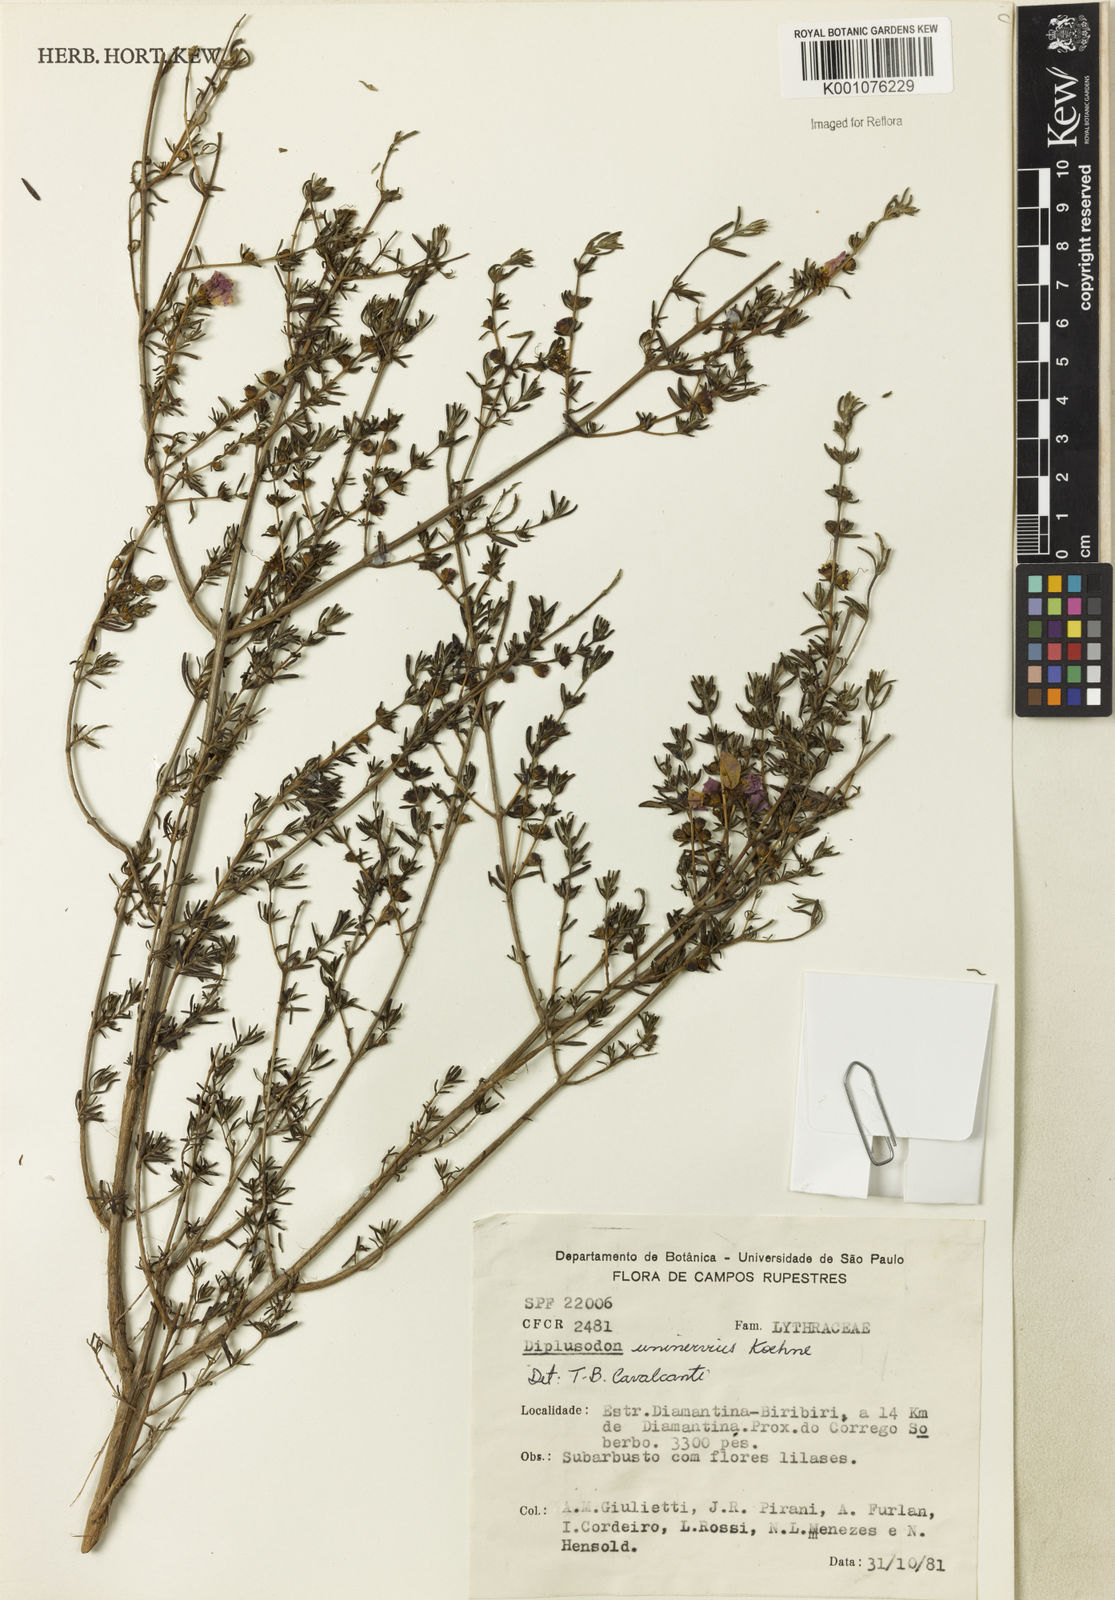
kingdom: Plantae
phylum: Tracheophyta
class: Magnoliopsida
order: Myrtales
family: Lythraceae
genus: Diplusodon
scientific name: Diplusodon uninervius
